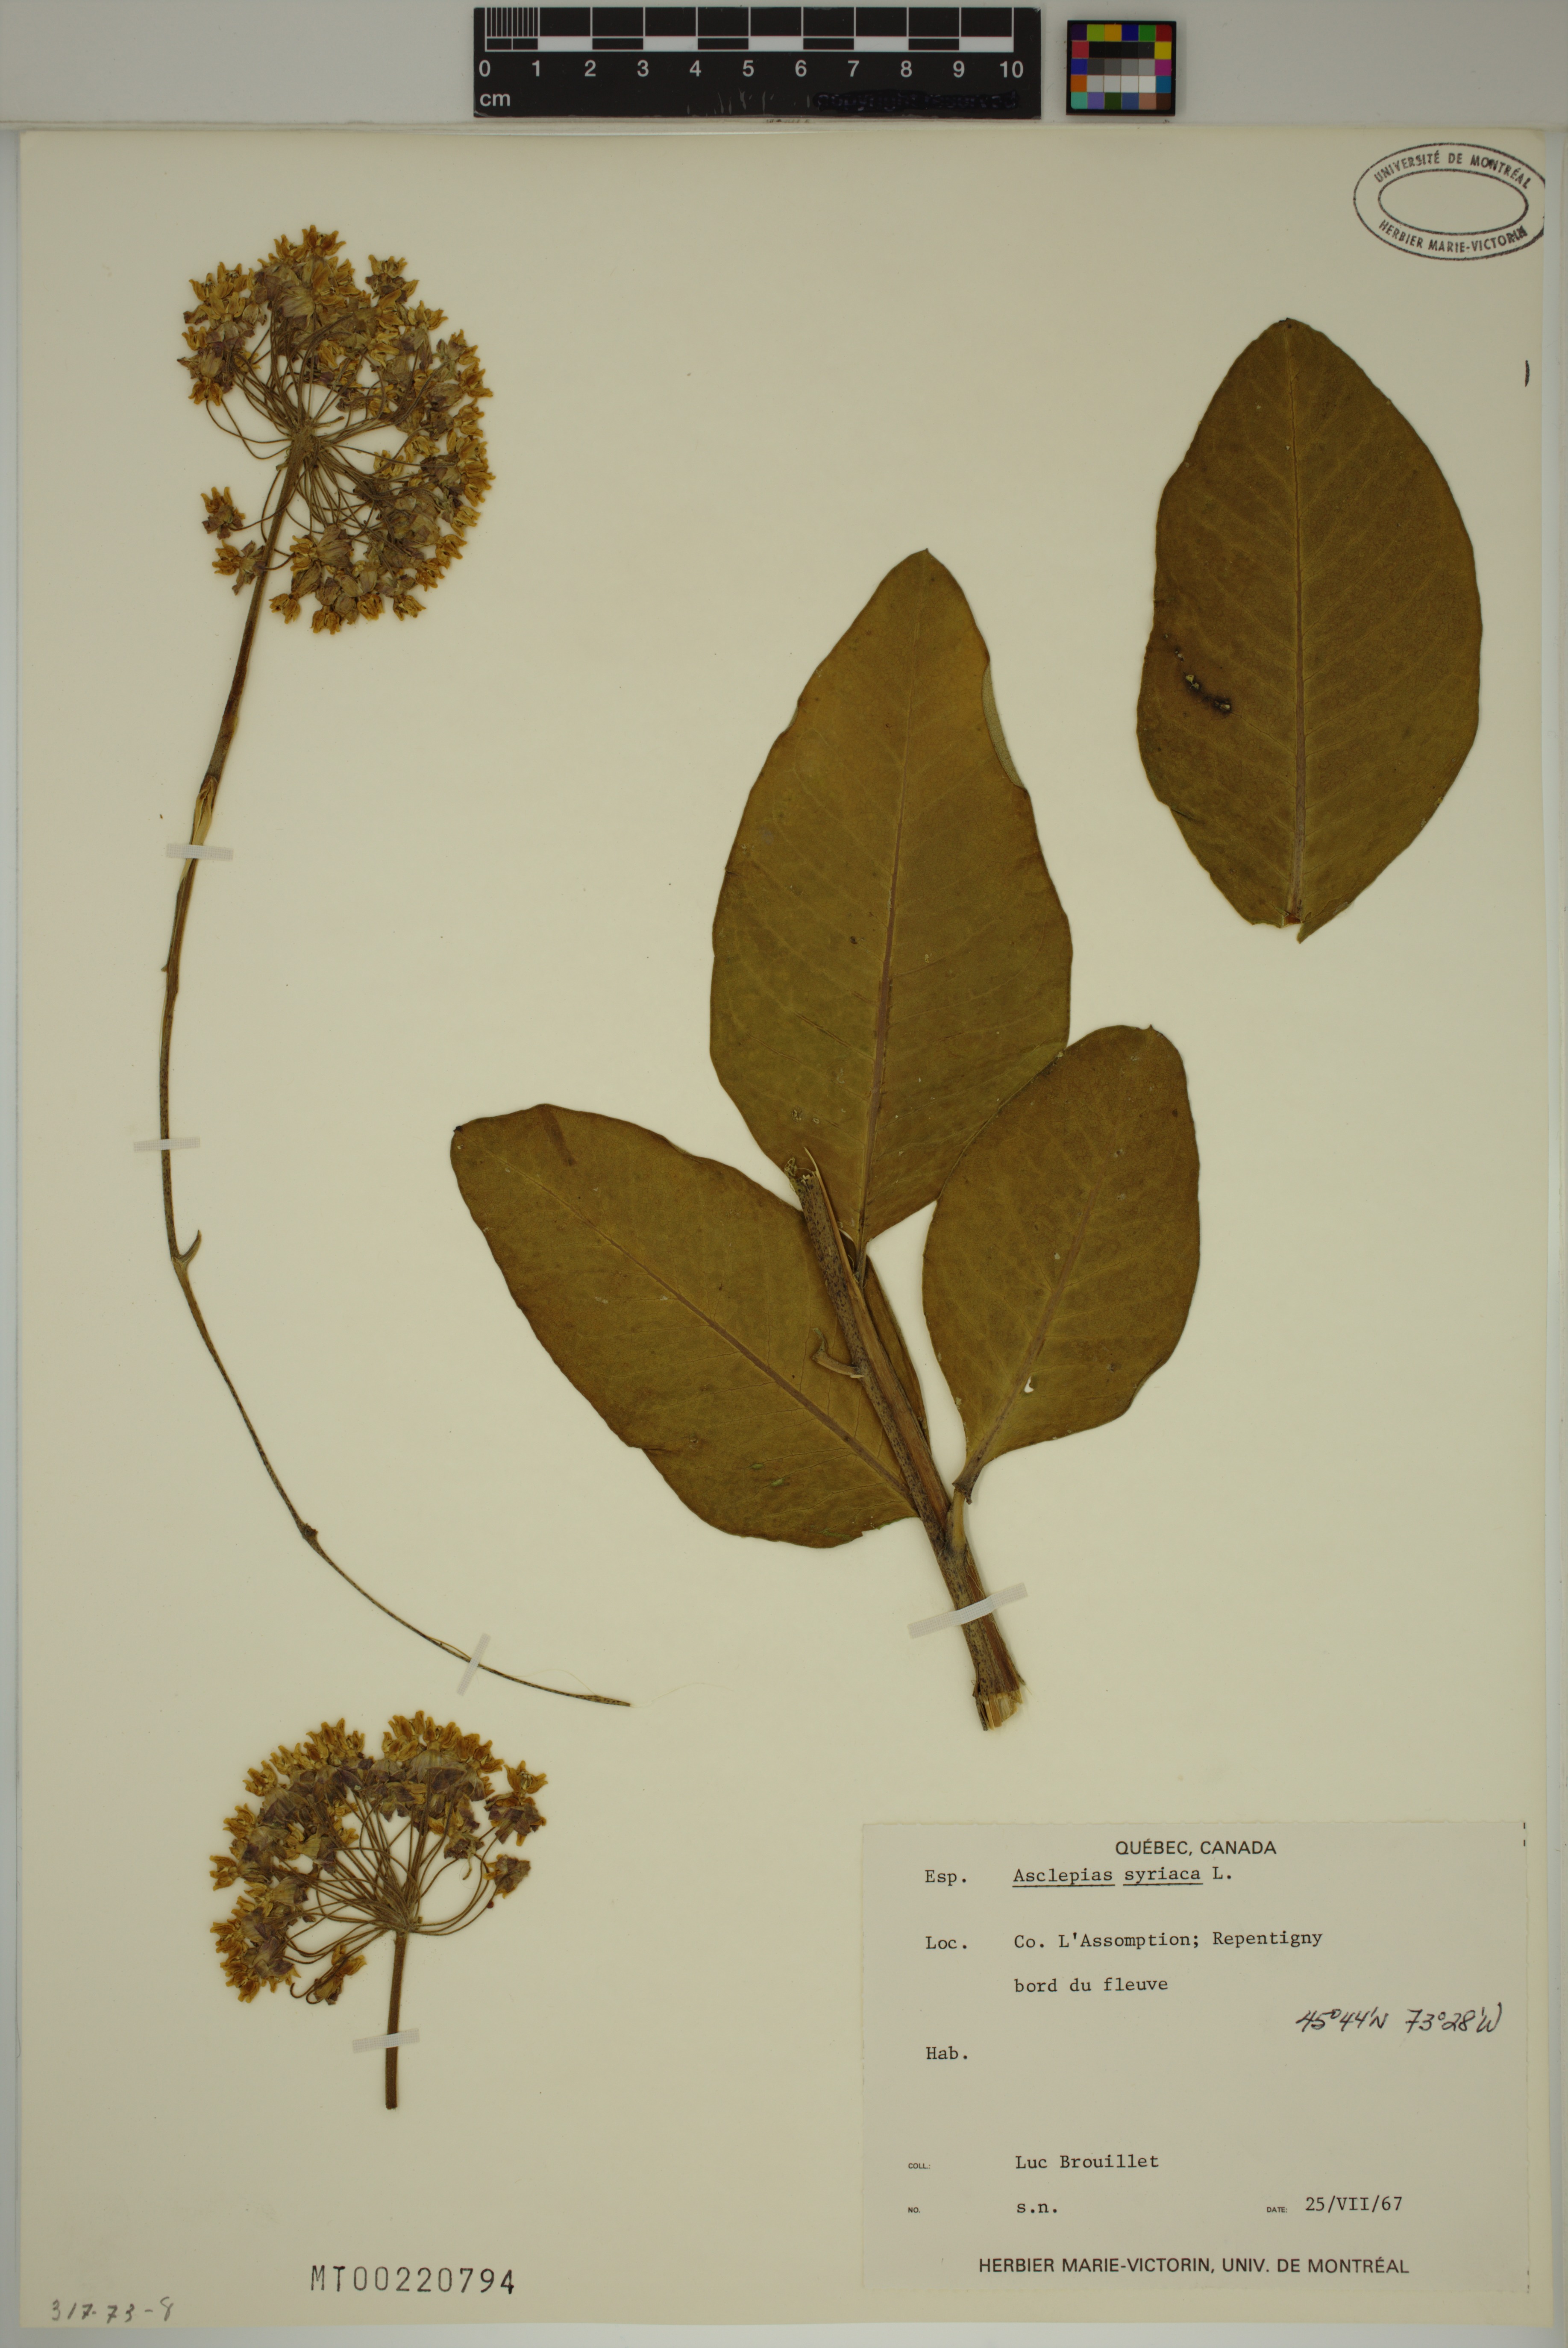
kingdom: Plantae
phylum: Tracheophyta
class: Magnoliopsida
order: Gentianales
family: Apocynaceae
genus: Asclepias
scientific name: Asclepias syriaca
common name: Common milkweed
